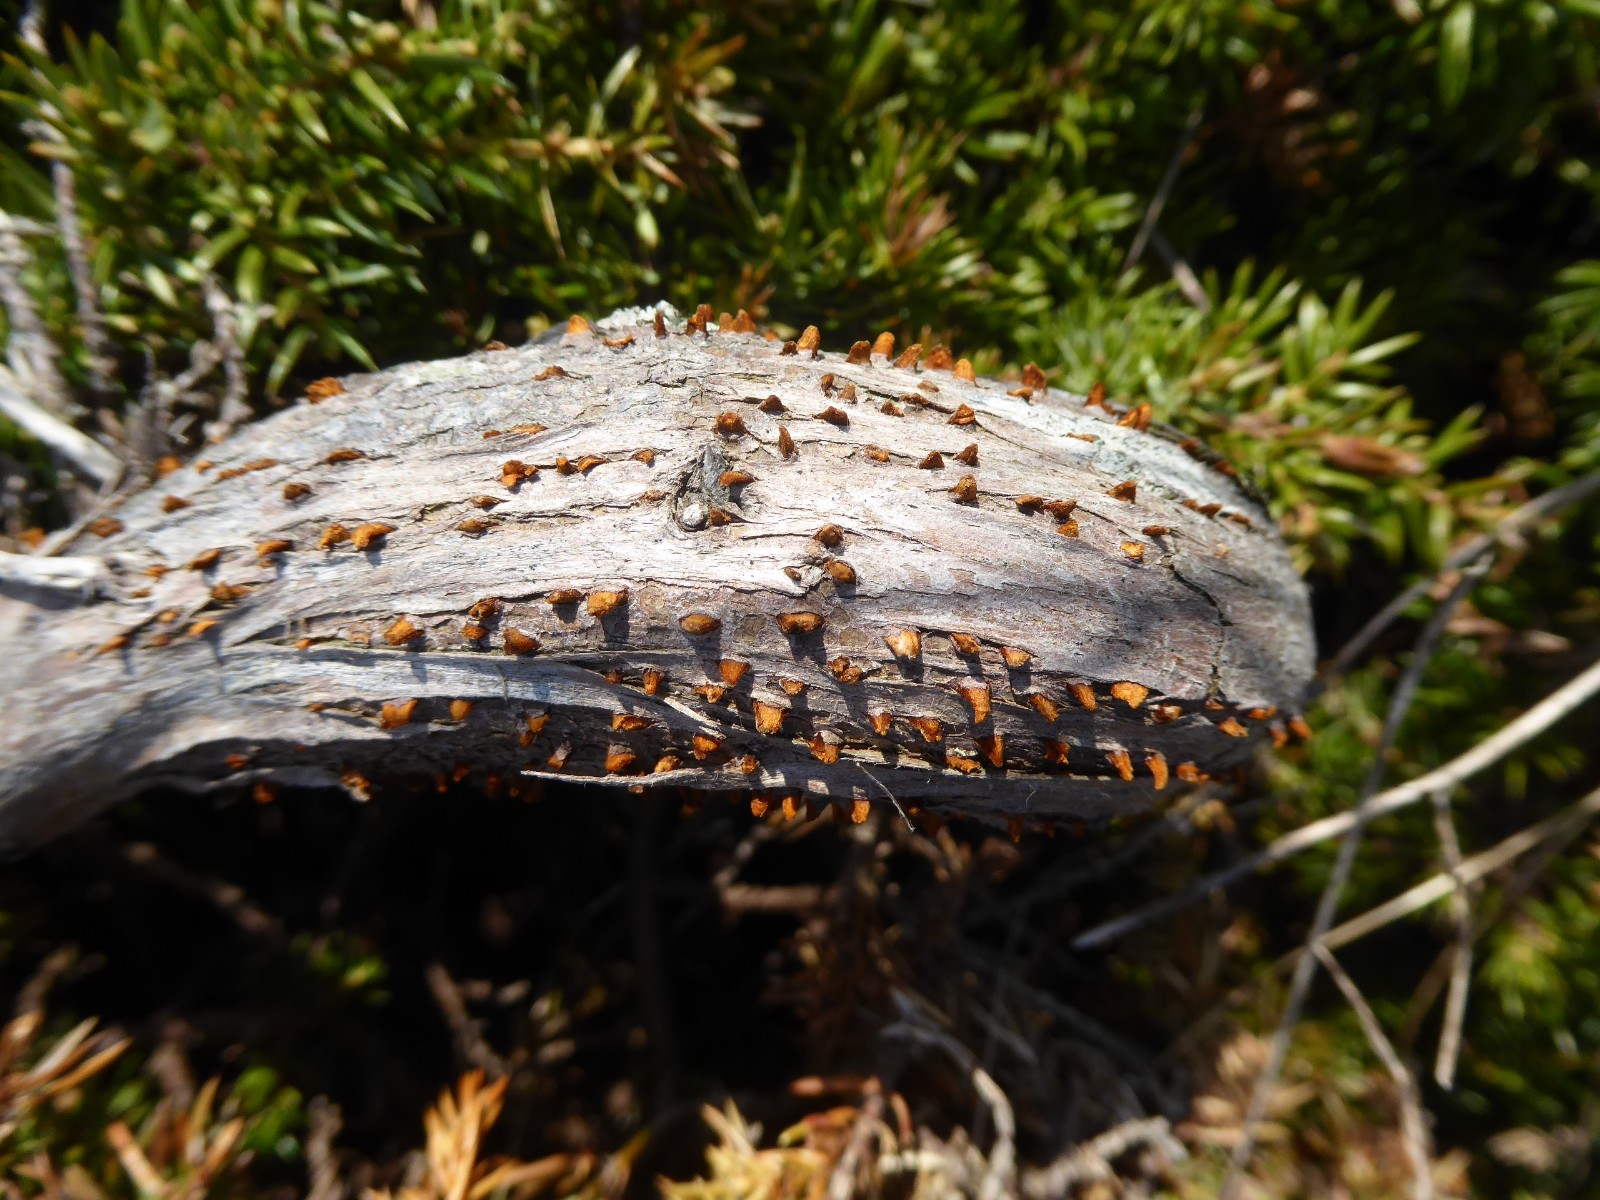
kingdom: Fungi
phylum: Basidiomycota
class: Pucciniomycetes
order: Pucciniales
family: Gymnosporangiaceae
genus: Gymnosporangium
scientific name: Gymnosporangium clavariiforme
